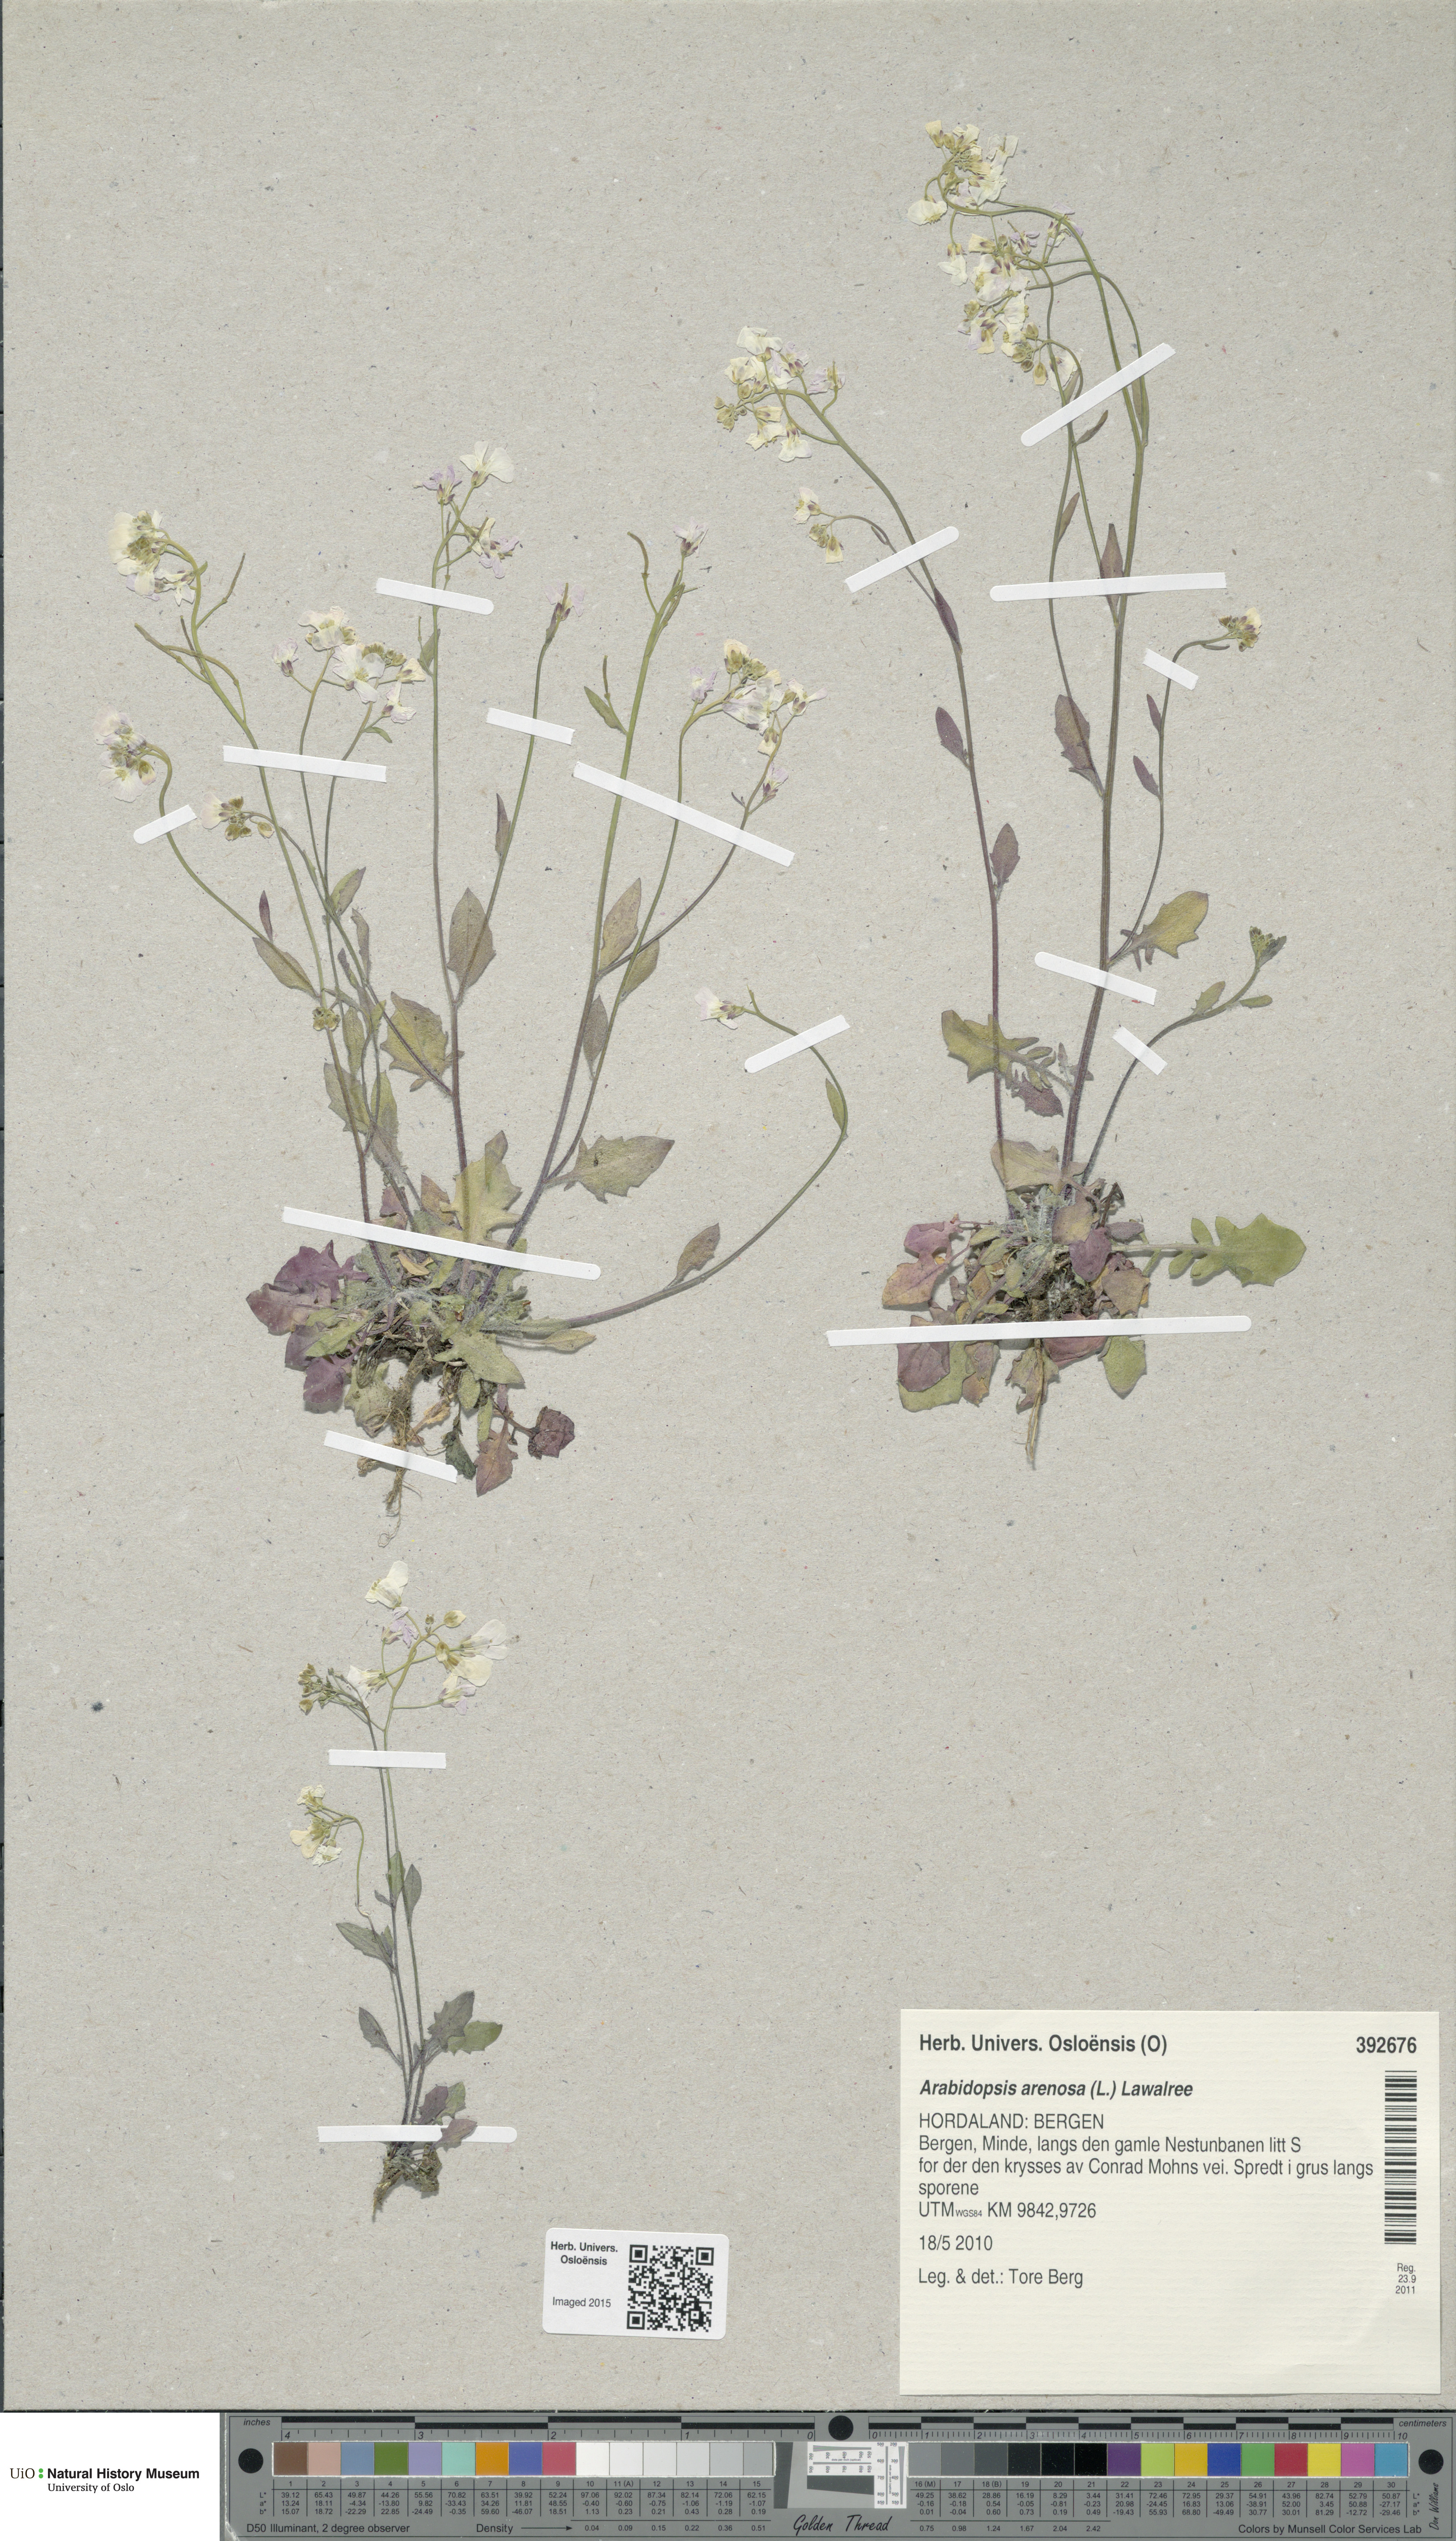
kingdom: Plantae
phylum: Tracheophyta
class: Magnoliopsida
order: Brassicales
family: Brassicaceae
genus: Arabidopsis
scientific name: Arabidopsis arenosa
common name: Sand rock-cress
